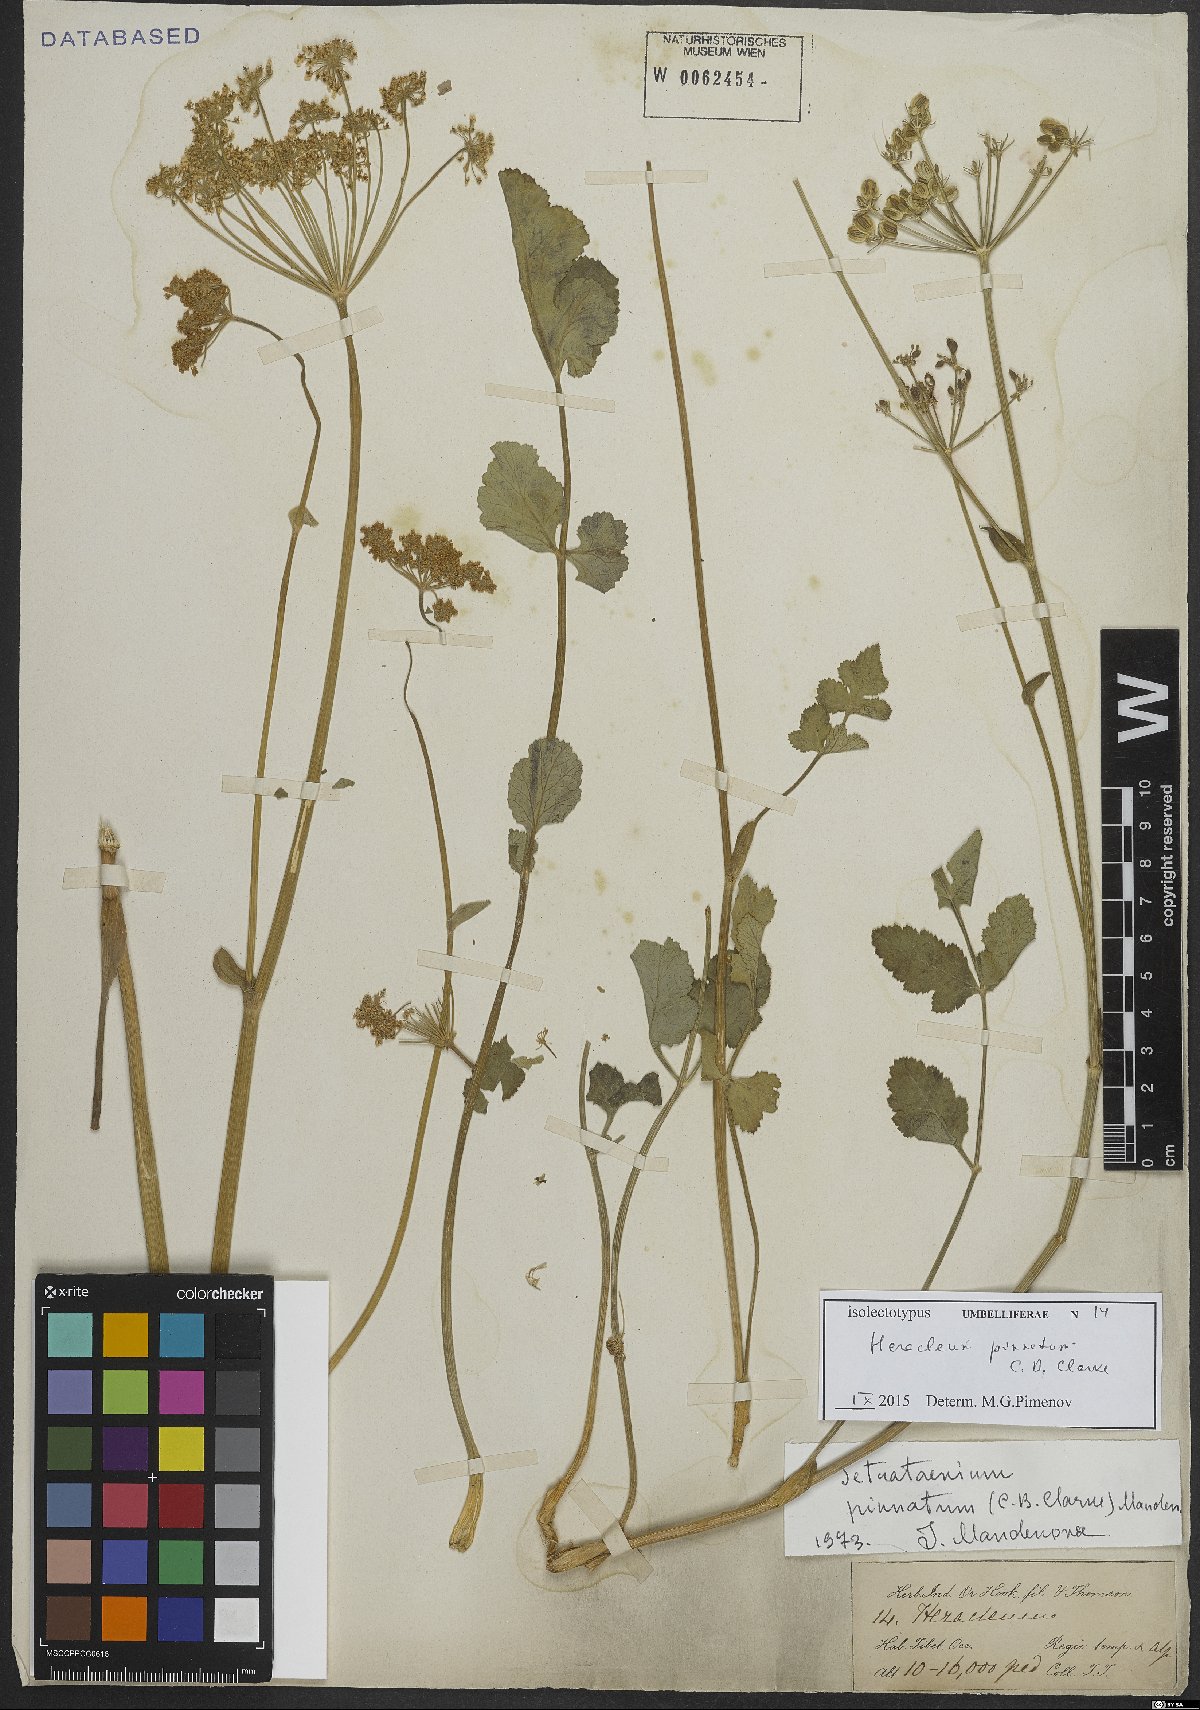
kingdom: Plantae
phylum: Tracheophyta
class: Magnoliopsida
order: Apiales
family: Apiaceae
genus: Tetrataenium
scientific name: Tetrataenium pinnatum
